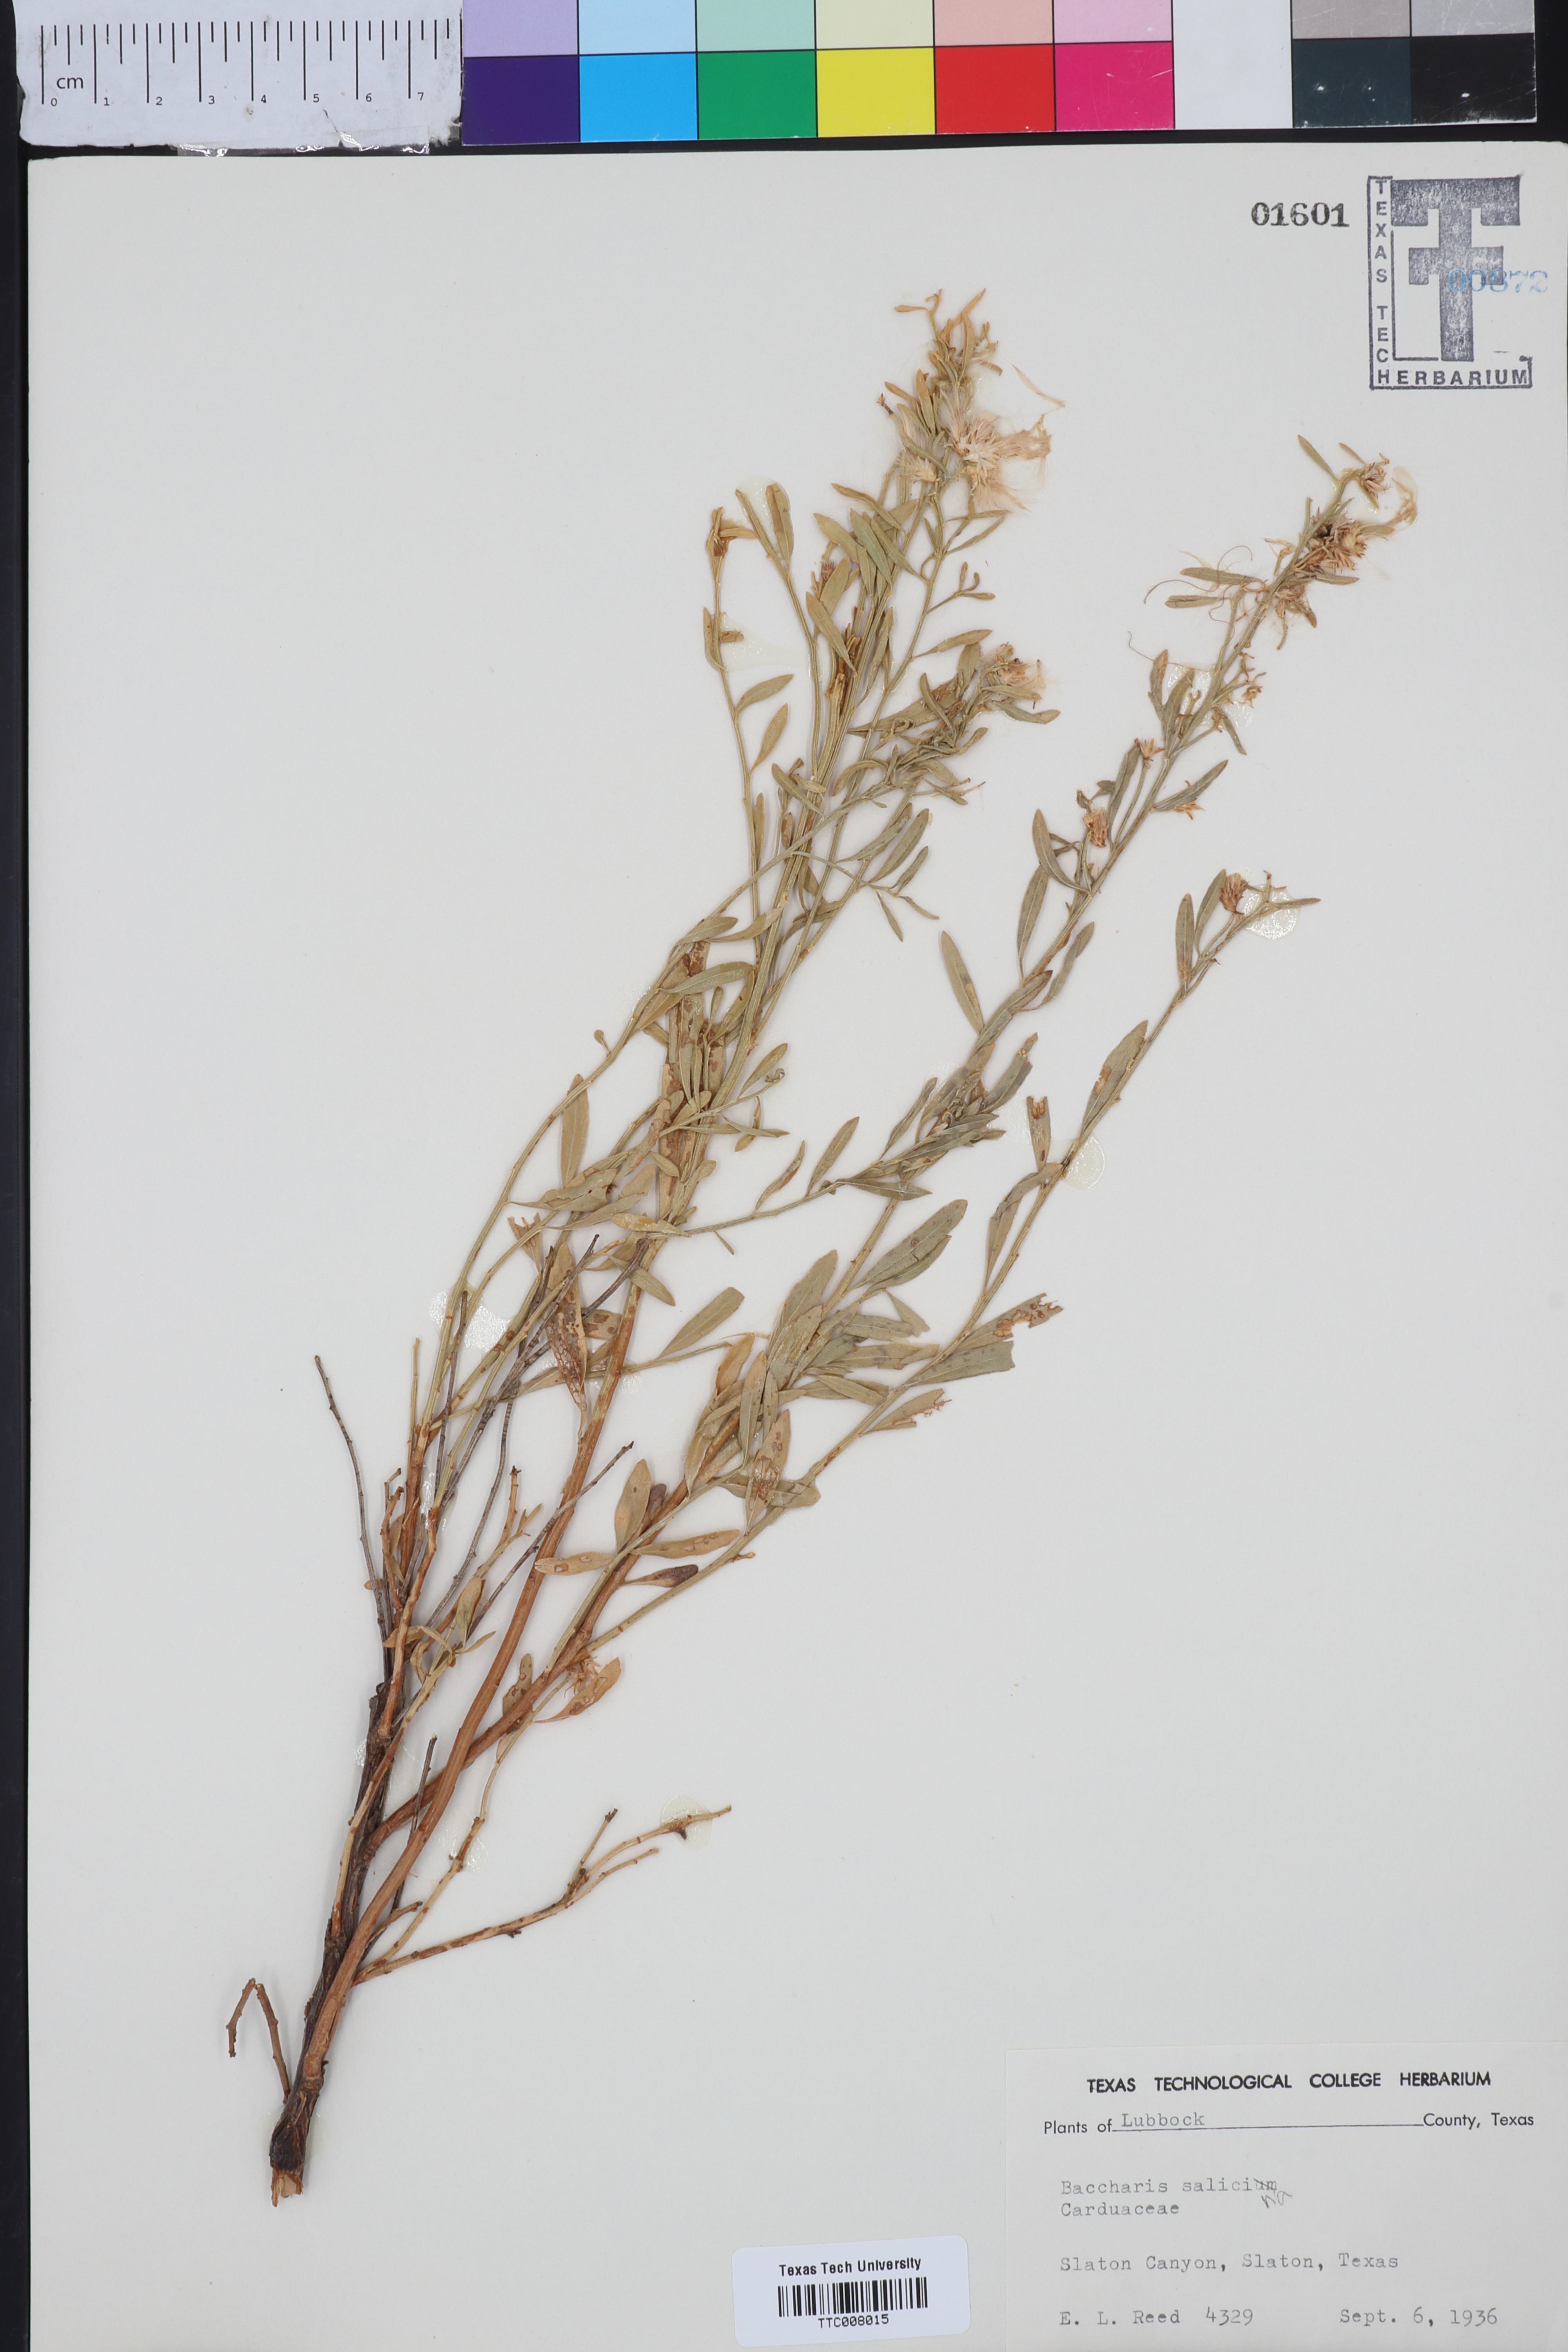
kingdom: Plantae
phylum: Tracheophyta
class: Magnoliopsida
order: Asterales
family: Asteraceae
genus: Baccharis
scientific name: Baccharis salicina
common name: Willow baccharis
